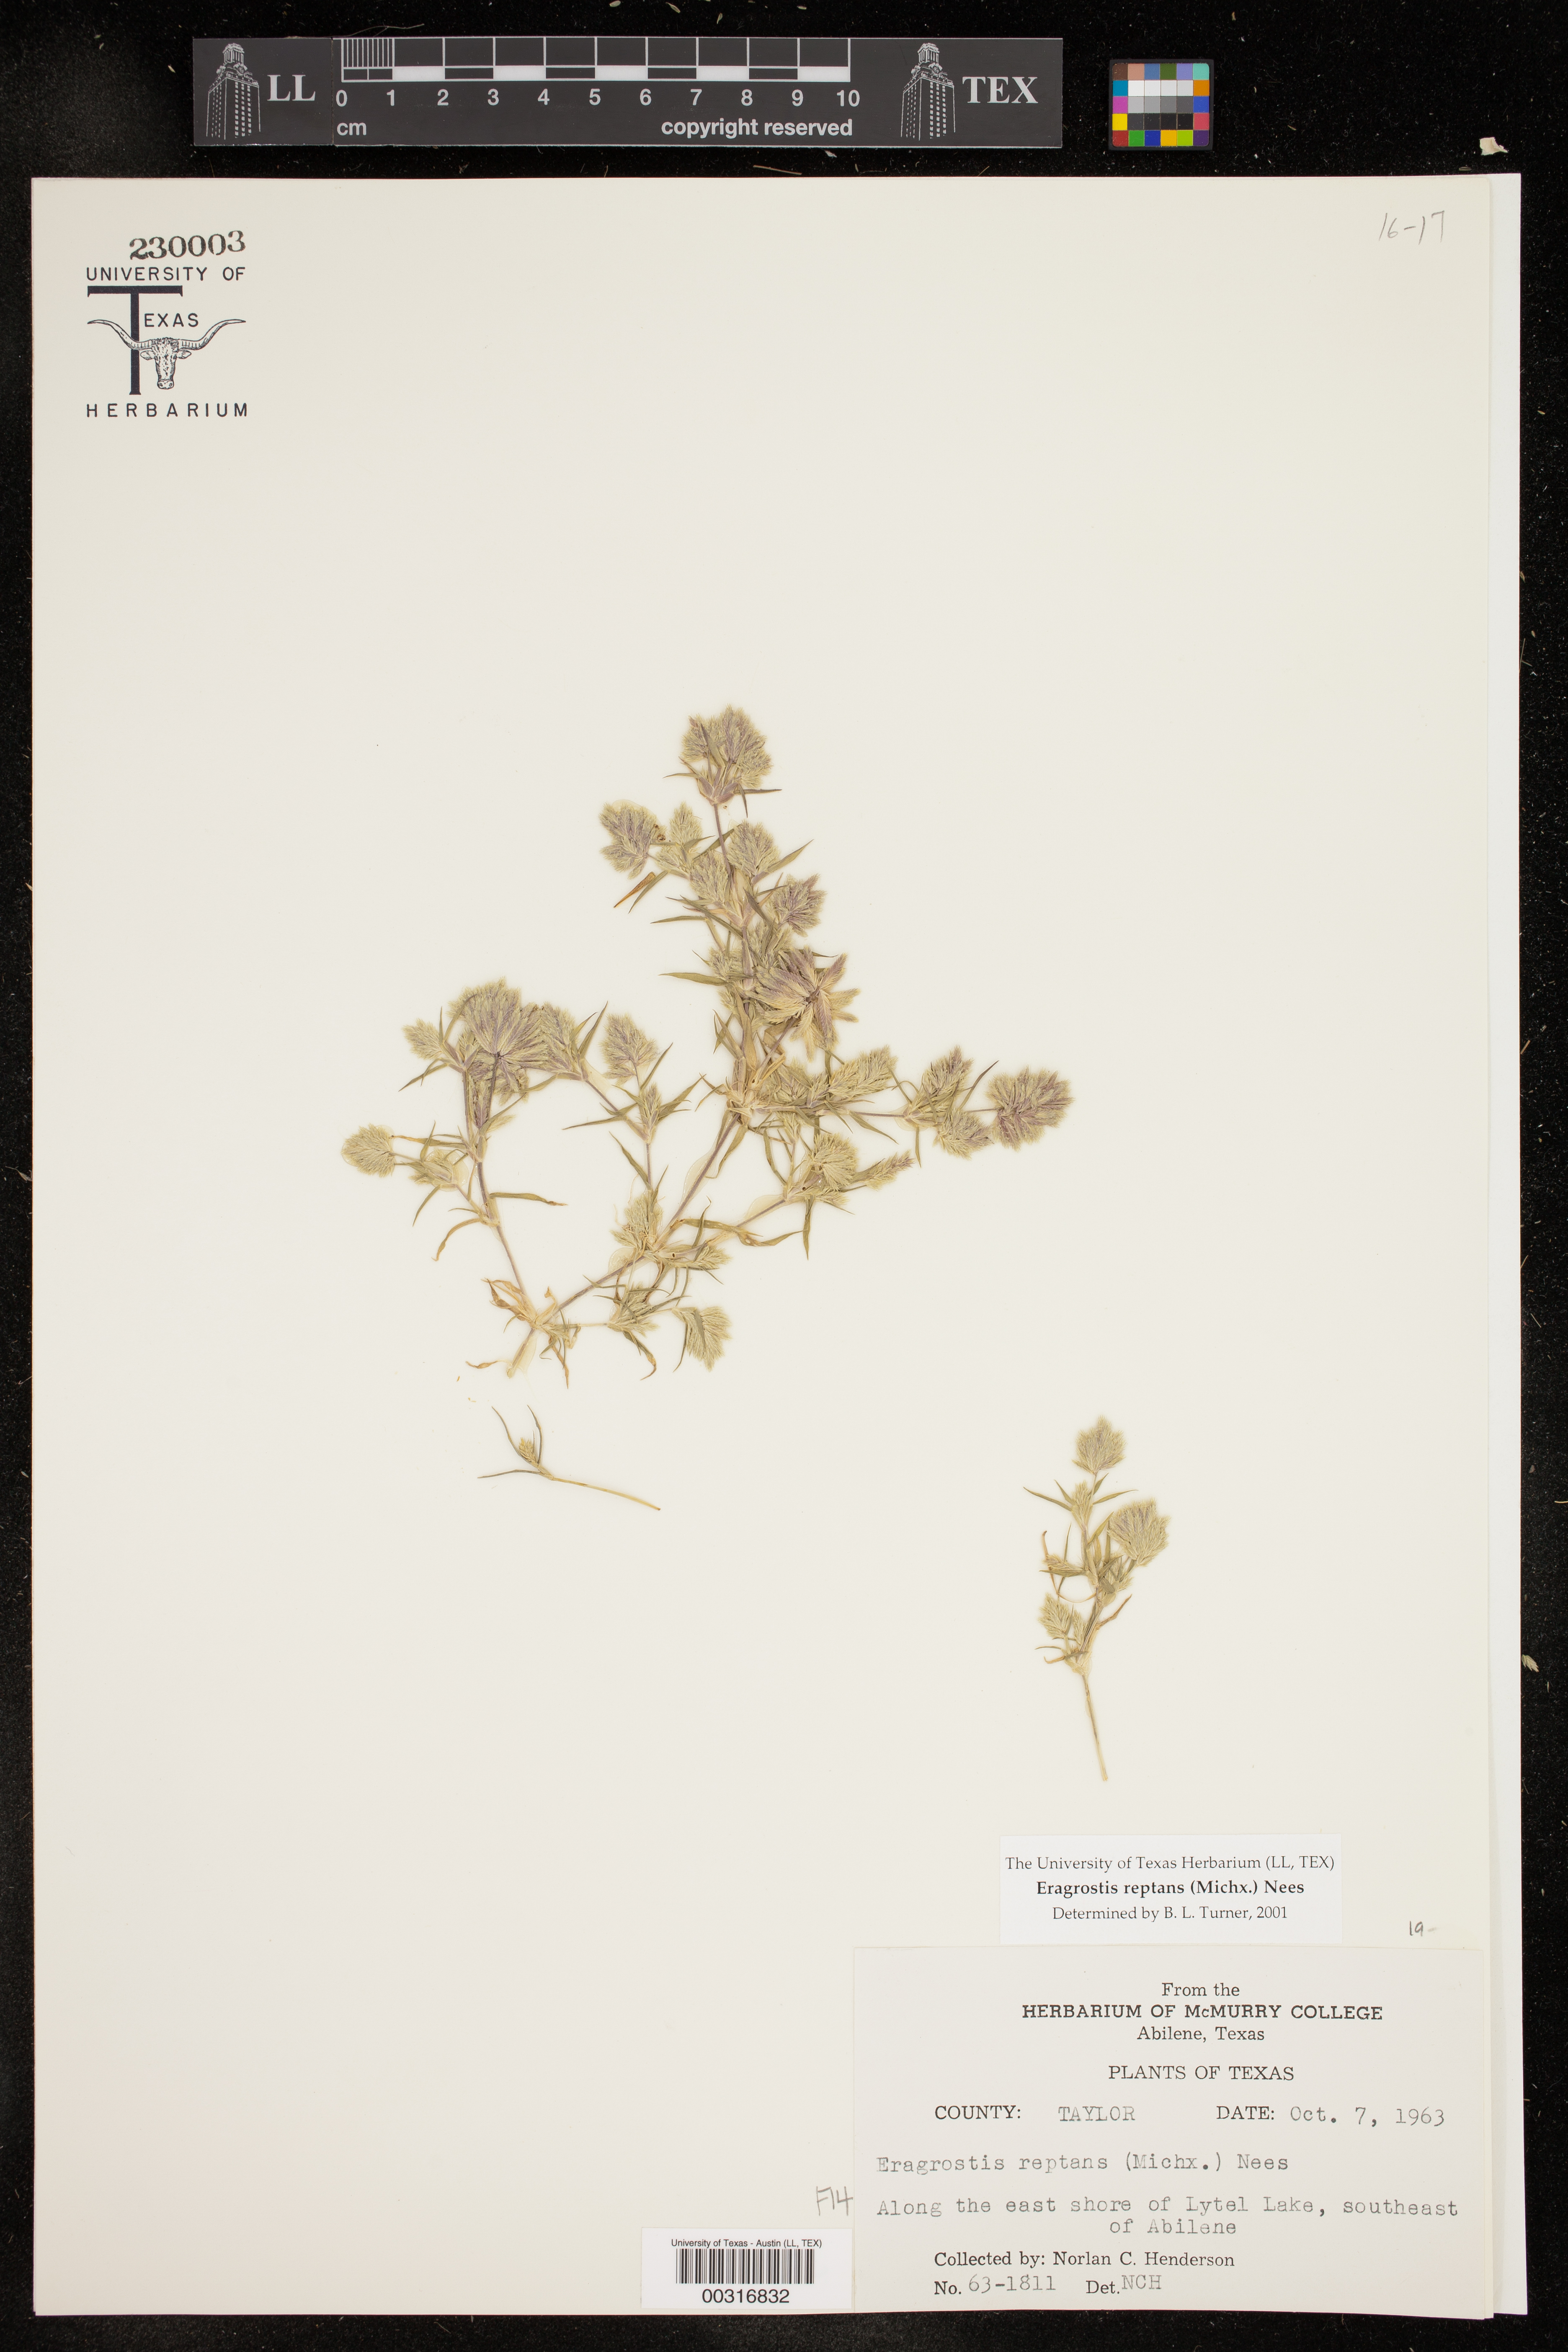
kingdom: Plantae
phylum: Tracheophyta
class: Liliopsida
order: Poales
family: Poaceae
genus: Eragrostis
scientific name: Eragrostis reptans
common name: Creeping love grass
